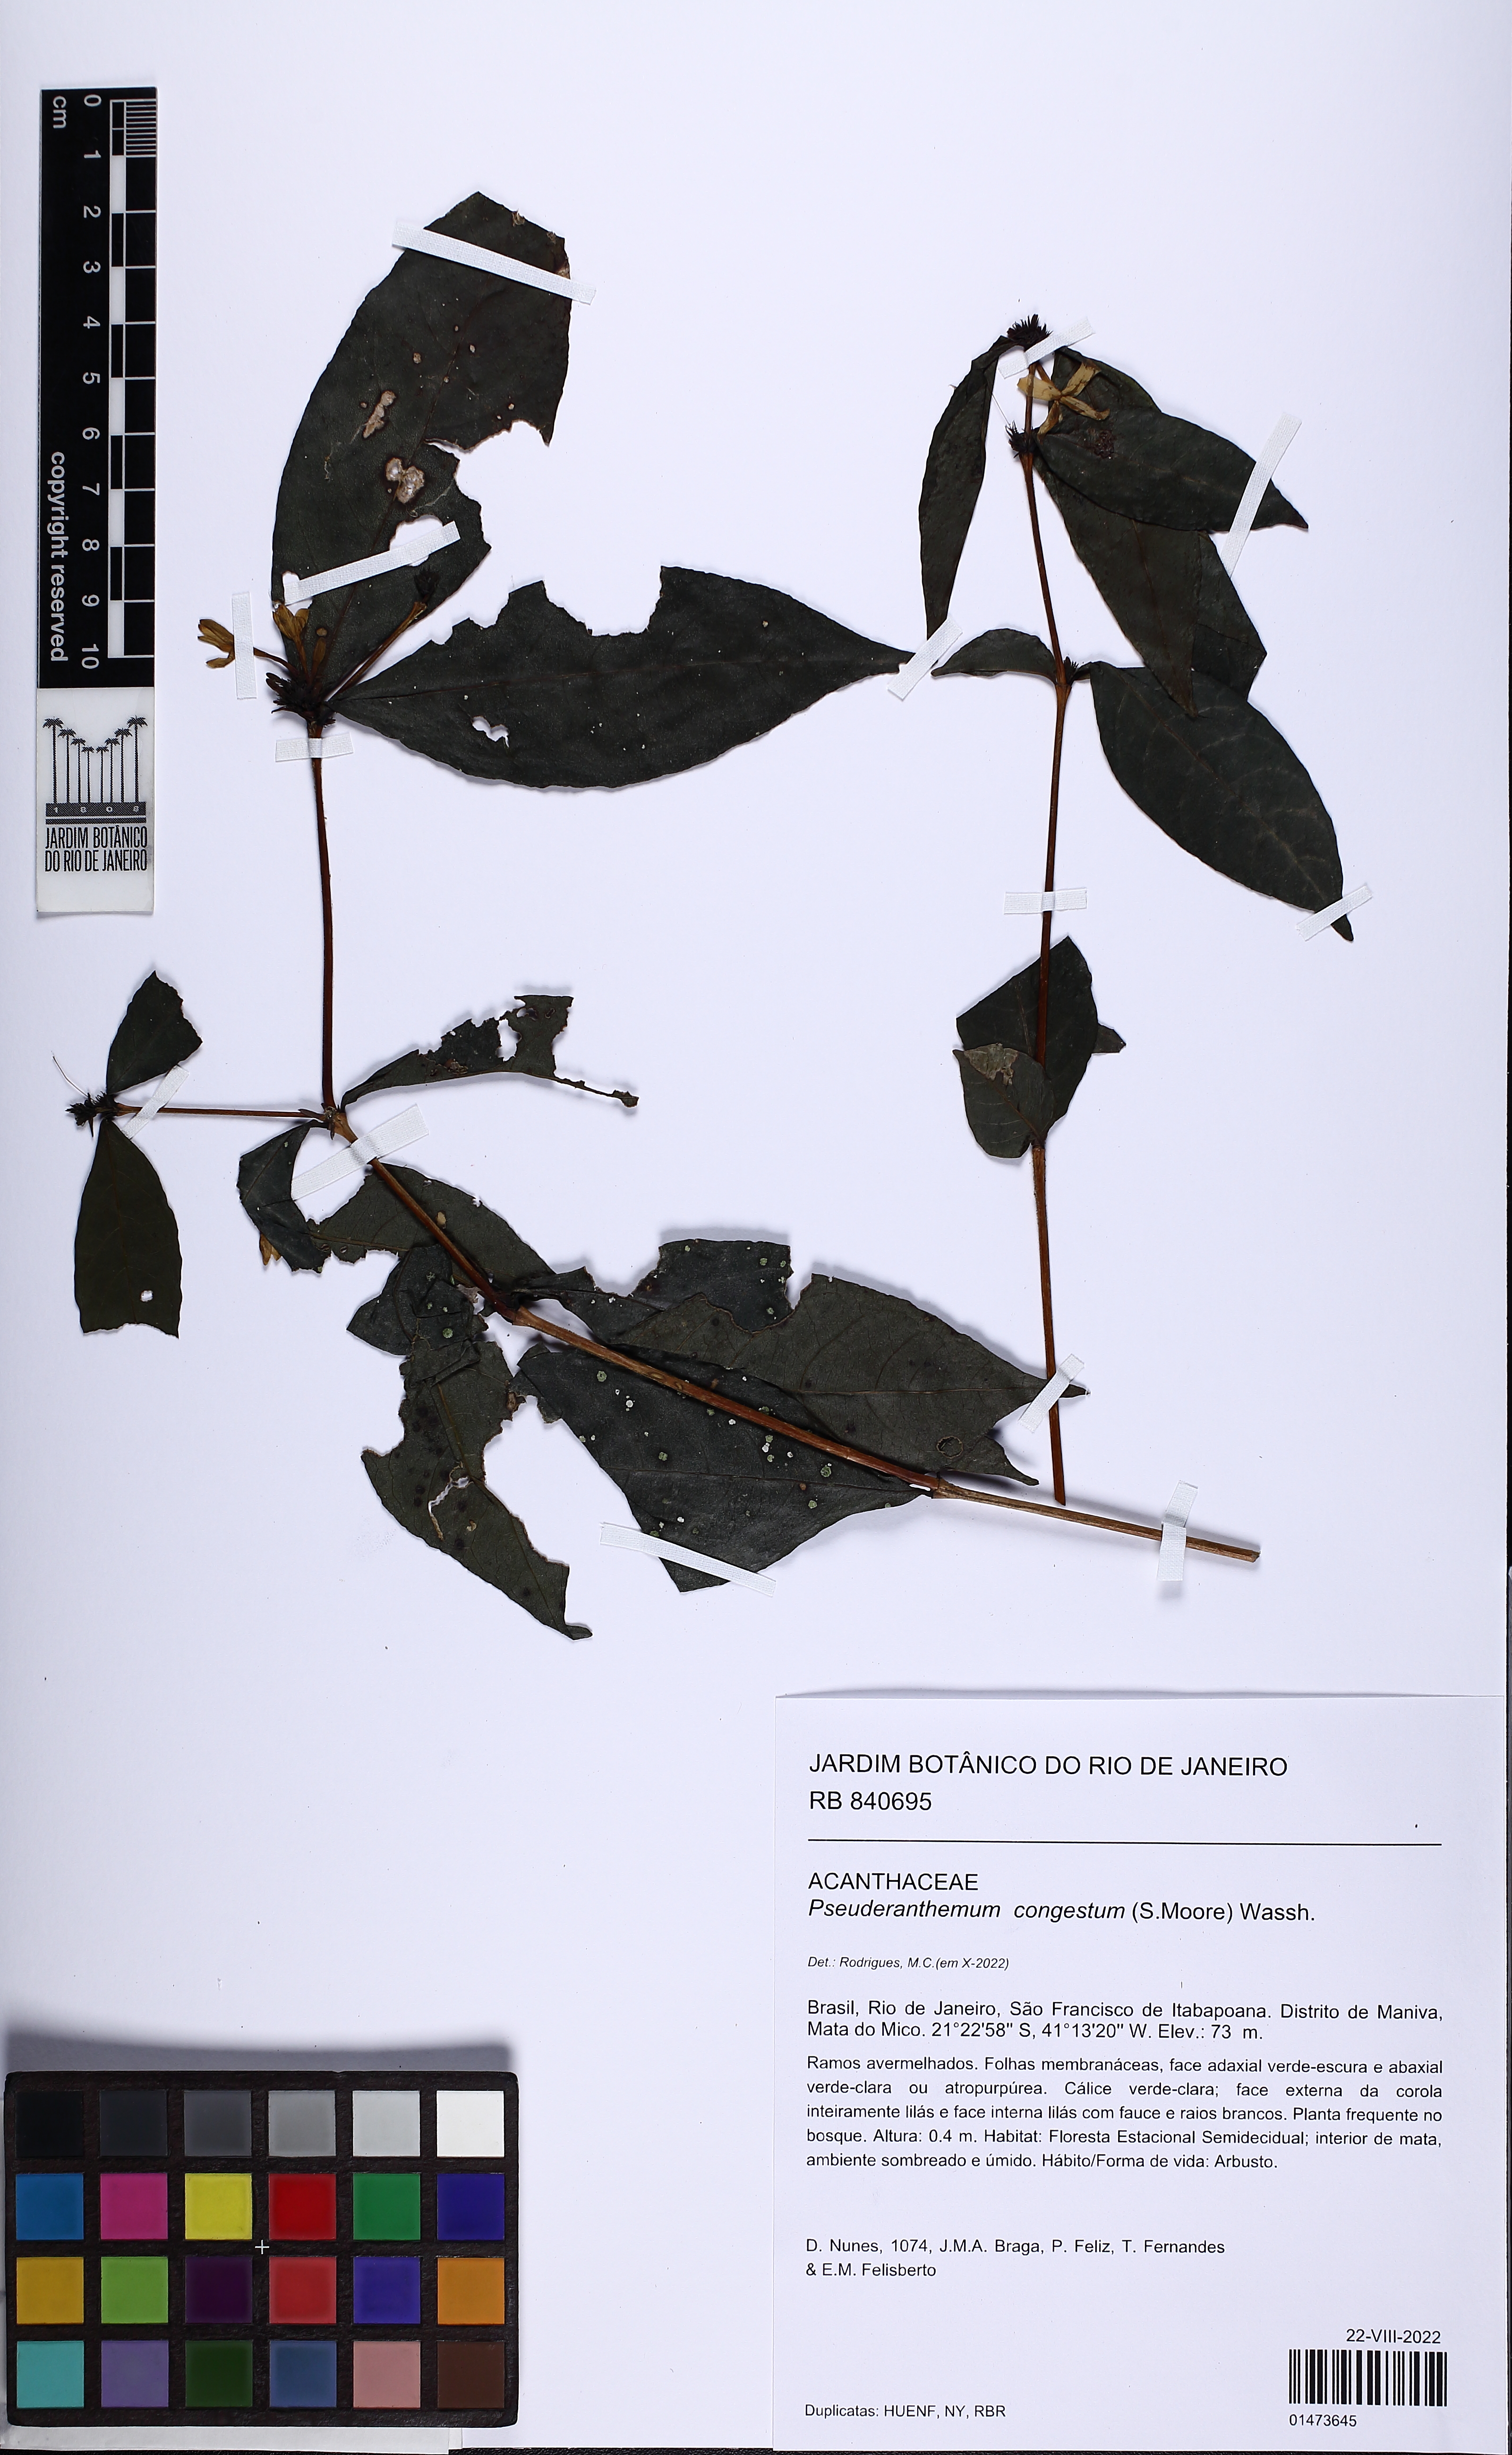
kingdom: Plantae
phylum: Tracheophyta
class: Magnoliopsida
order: Lamiales
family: Acanthaceae
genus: Pseuderanthemum
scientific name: Pseuderanthemum congestum
